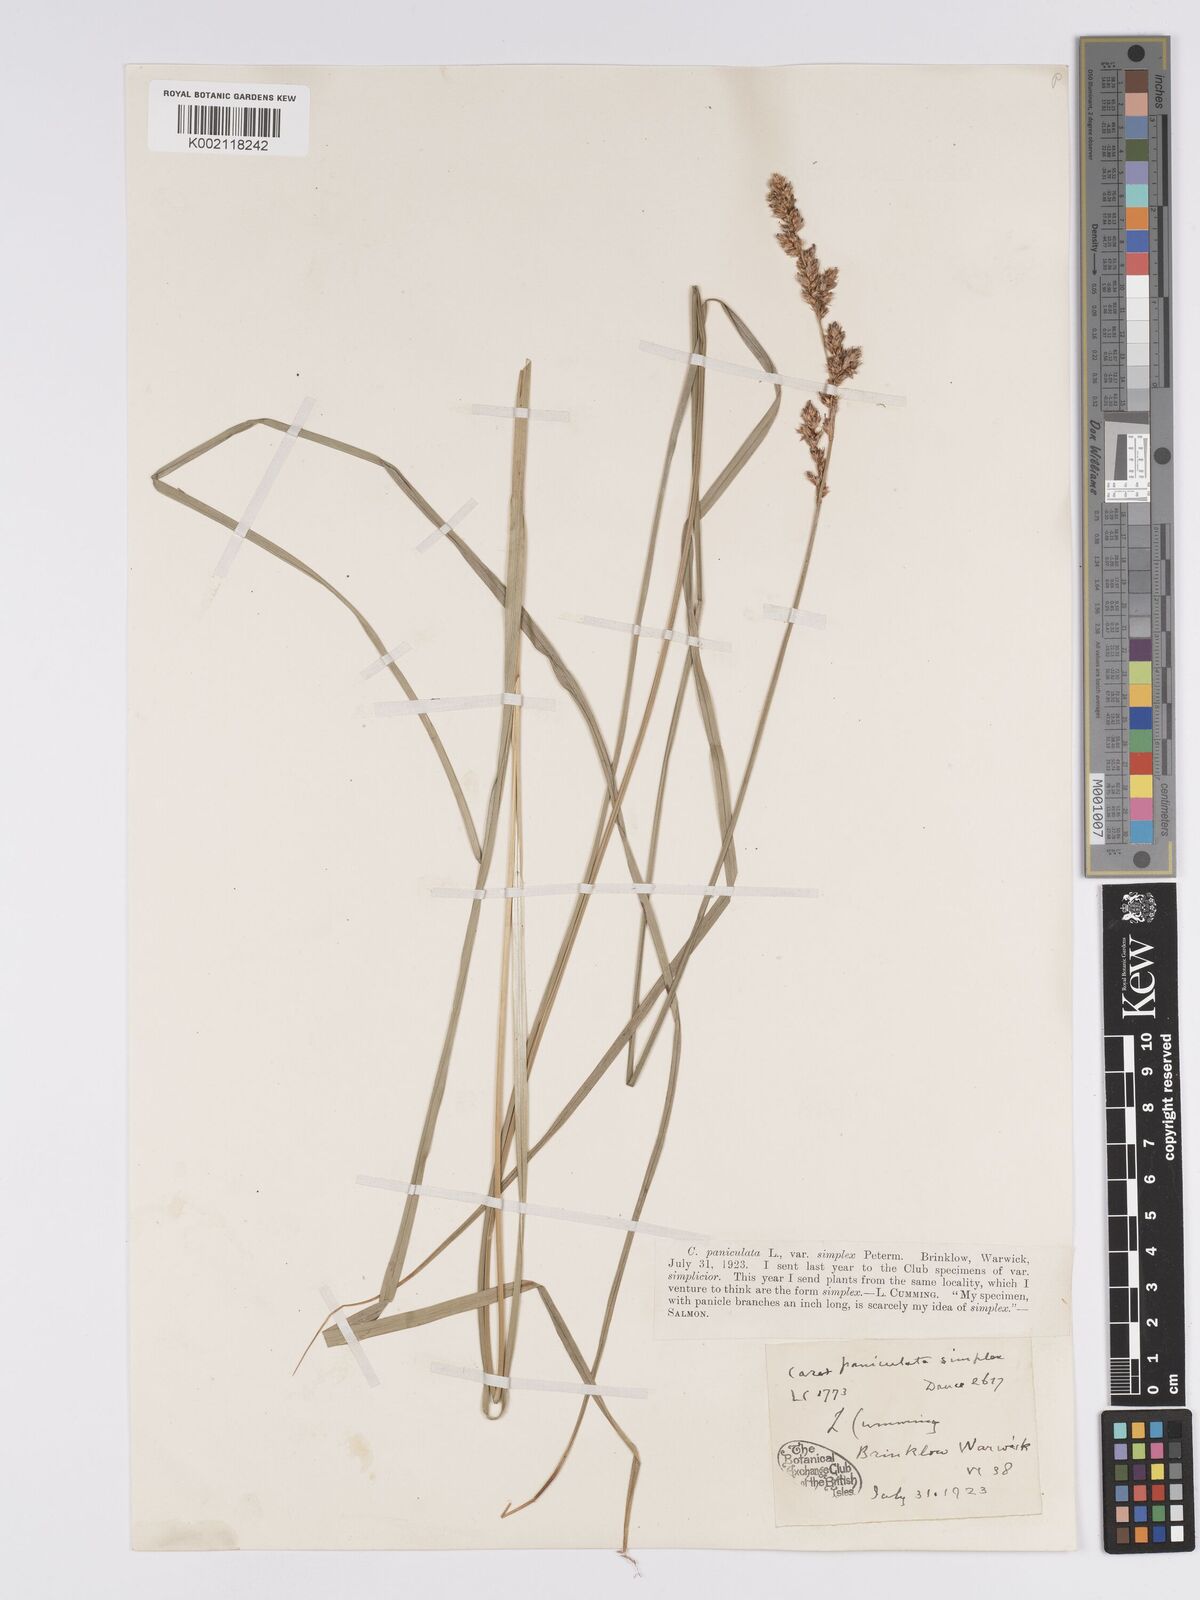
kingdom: Plantae
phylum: Tracheophyta
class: Liliopsida
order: Poales
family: Cyperaceae
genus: Carex
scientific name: Carex paniculata
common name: Greater tussock-sedge
